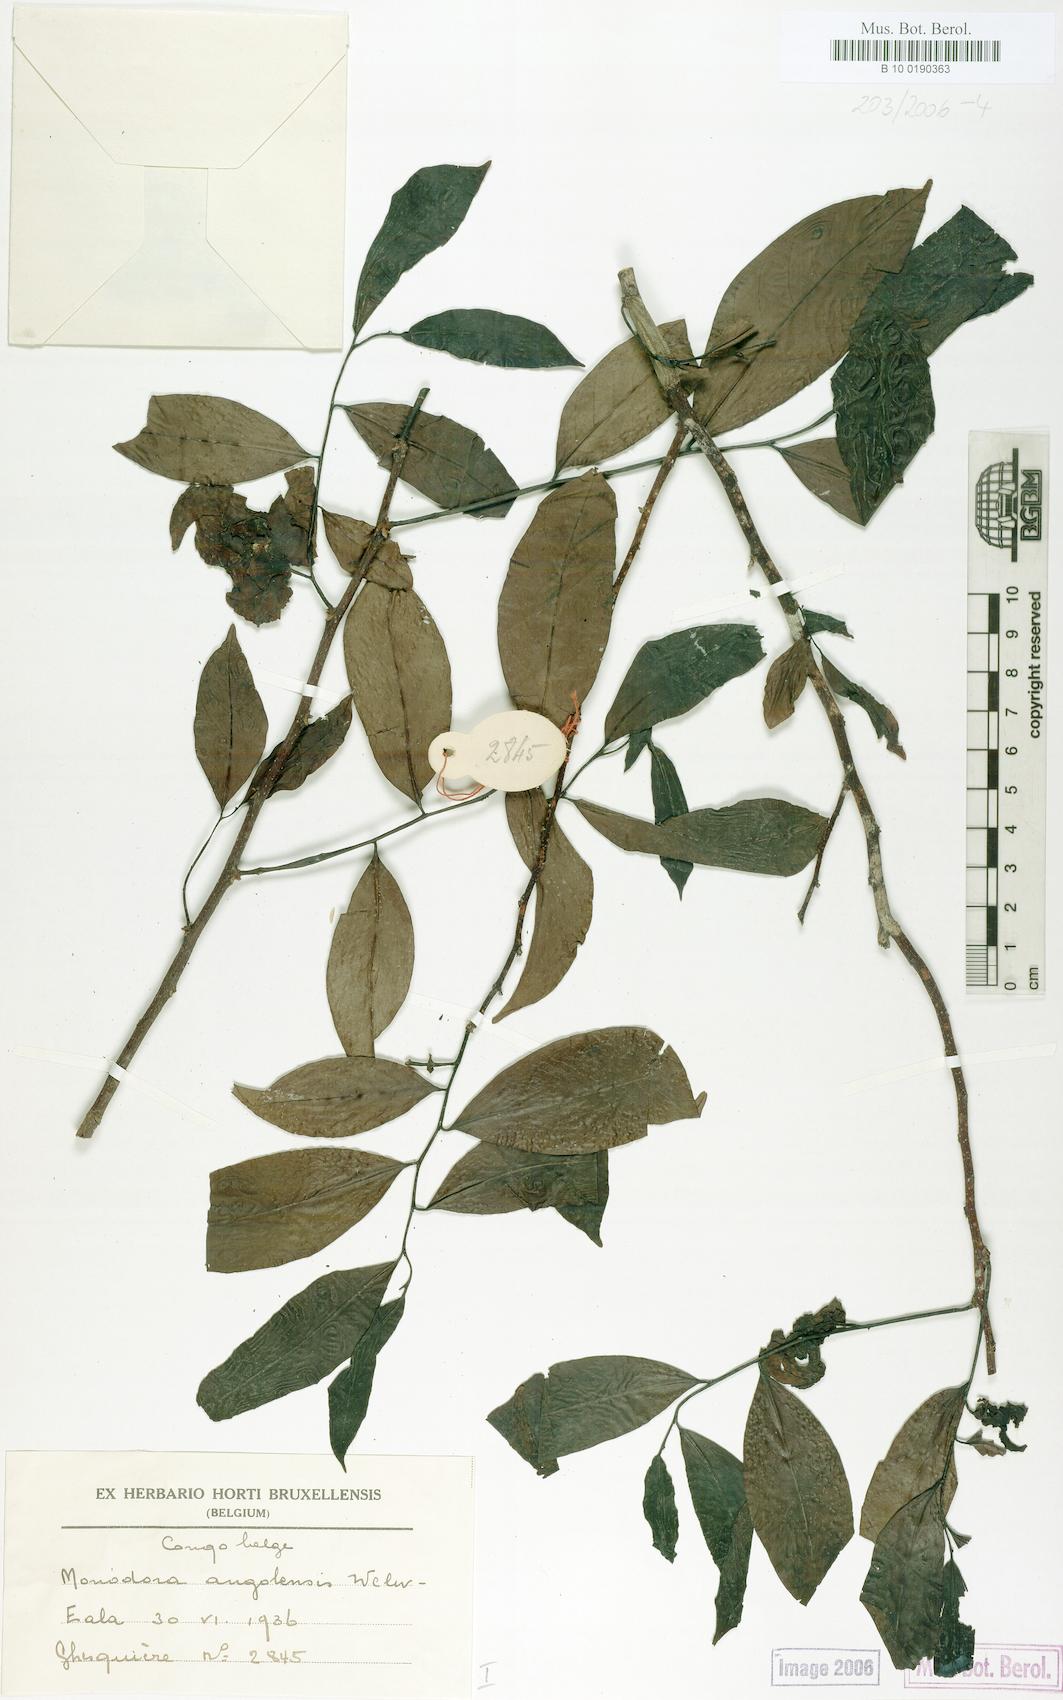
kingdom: Plantae
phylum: Tracheophyta
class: Magnoliopsida
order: Magnoliales
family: Annonaceae
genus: Monodora
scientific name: Monodora angolensis
